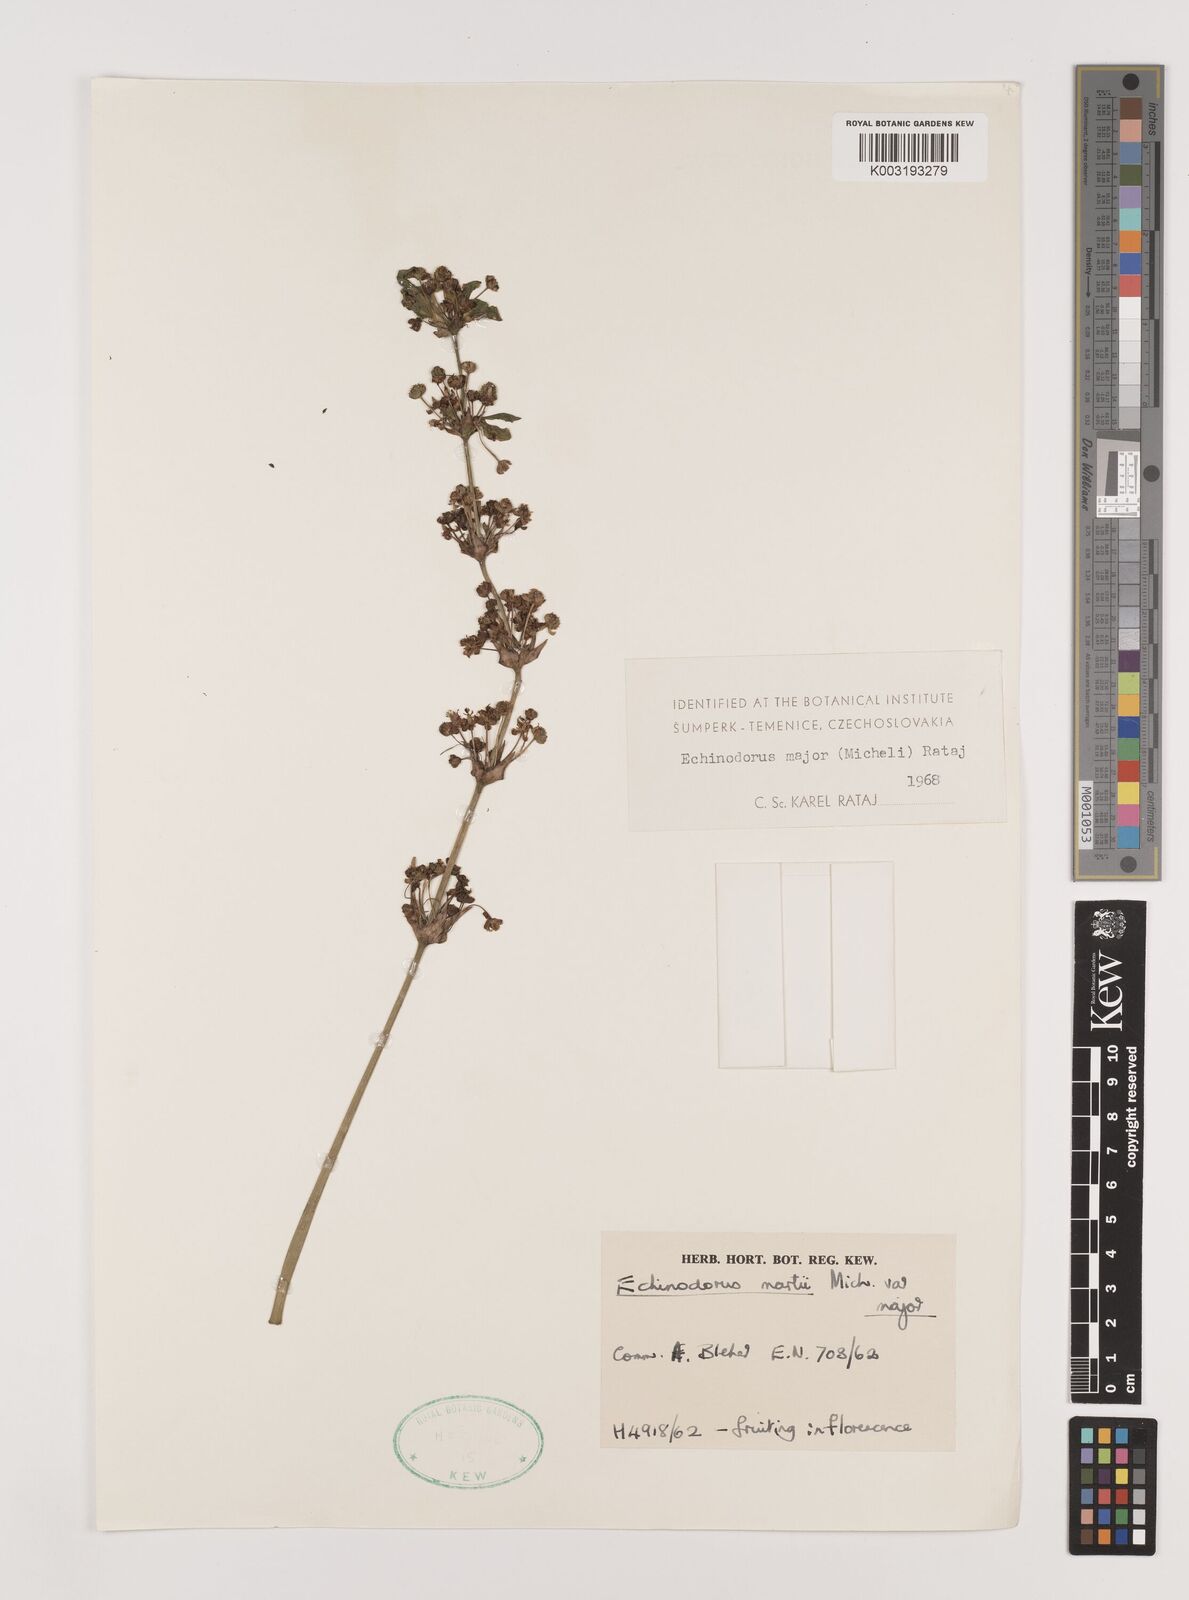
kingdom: Plantae
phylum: Tracheophyta
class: Liliopsida
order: Alismatales
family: Alismataceae
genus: Aquarius
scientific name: Aquarius major
